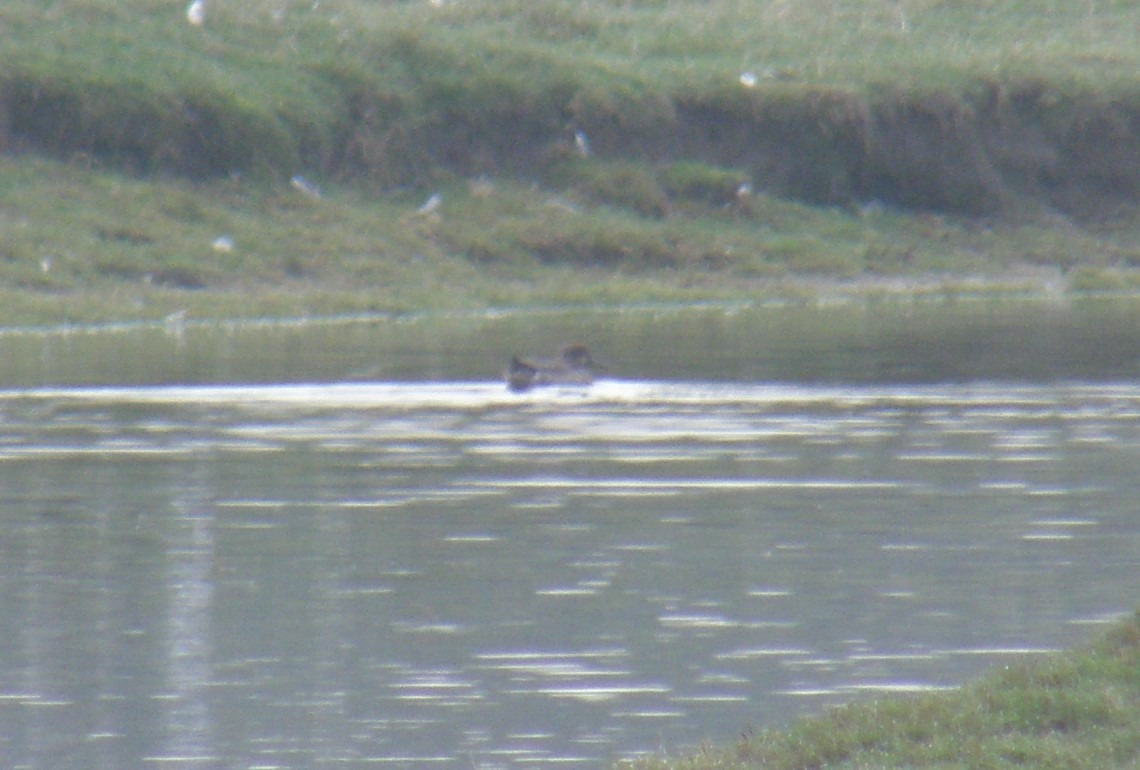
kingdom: Animalia
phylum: Chordata
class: Aves
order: Anseriformes
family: Anatidae
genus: Anas
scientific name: Anas crecca
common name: Krikand
